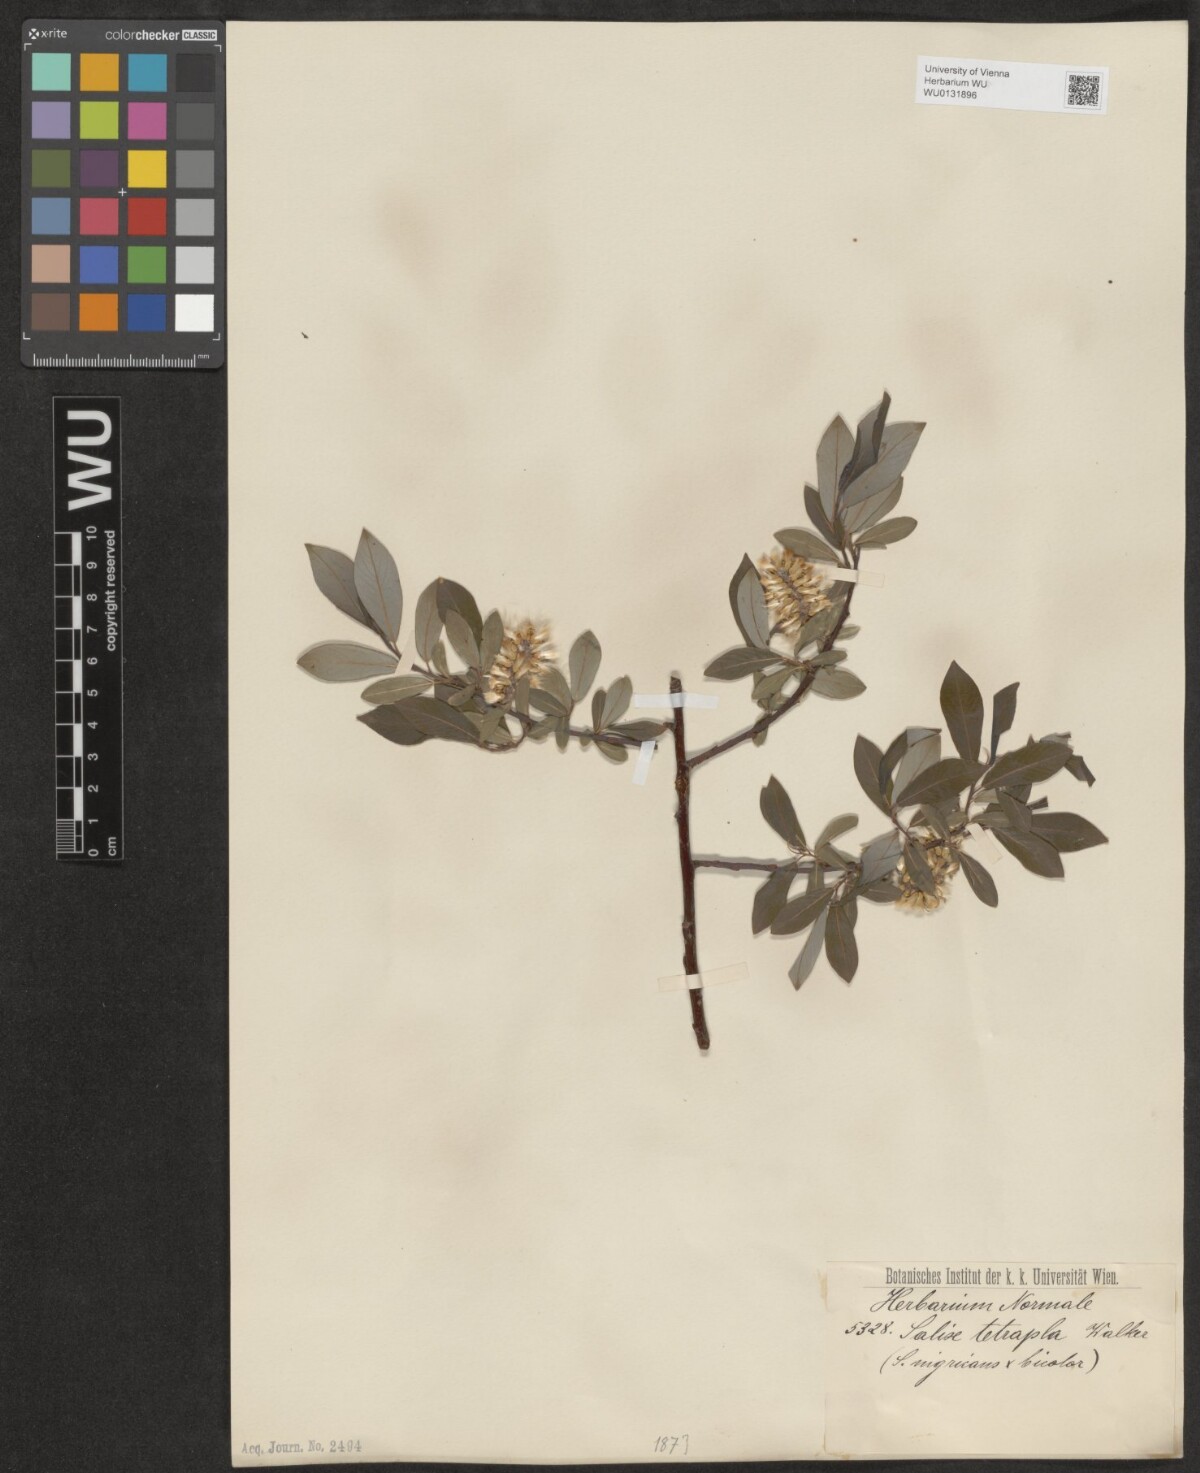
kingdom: Plantae
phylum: Tracheophyta
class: Magnoliopsida
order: Malpighiales
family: Salicaceae
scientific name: Salicaceae
